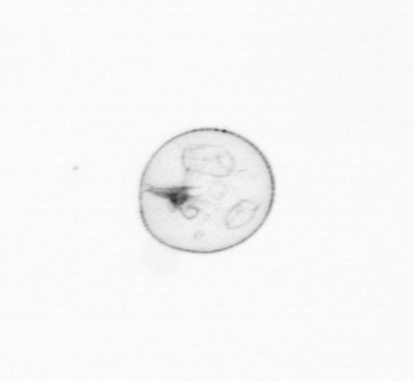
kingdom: Chromista
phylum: Myzozoa
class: Dinophyceae
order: Noctilucales
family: Noctilucaceae
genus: Noctiluca
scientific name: Noctiluca scintillans
